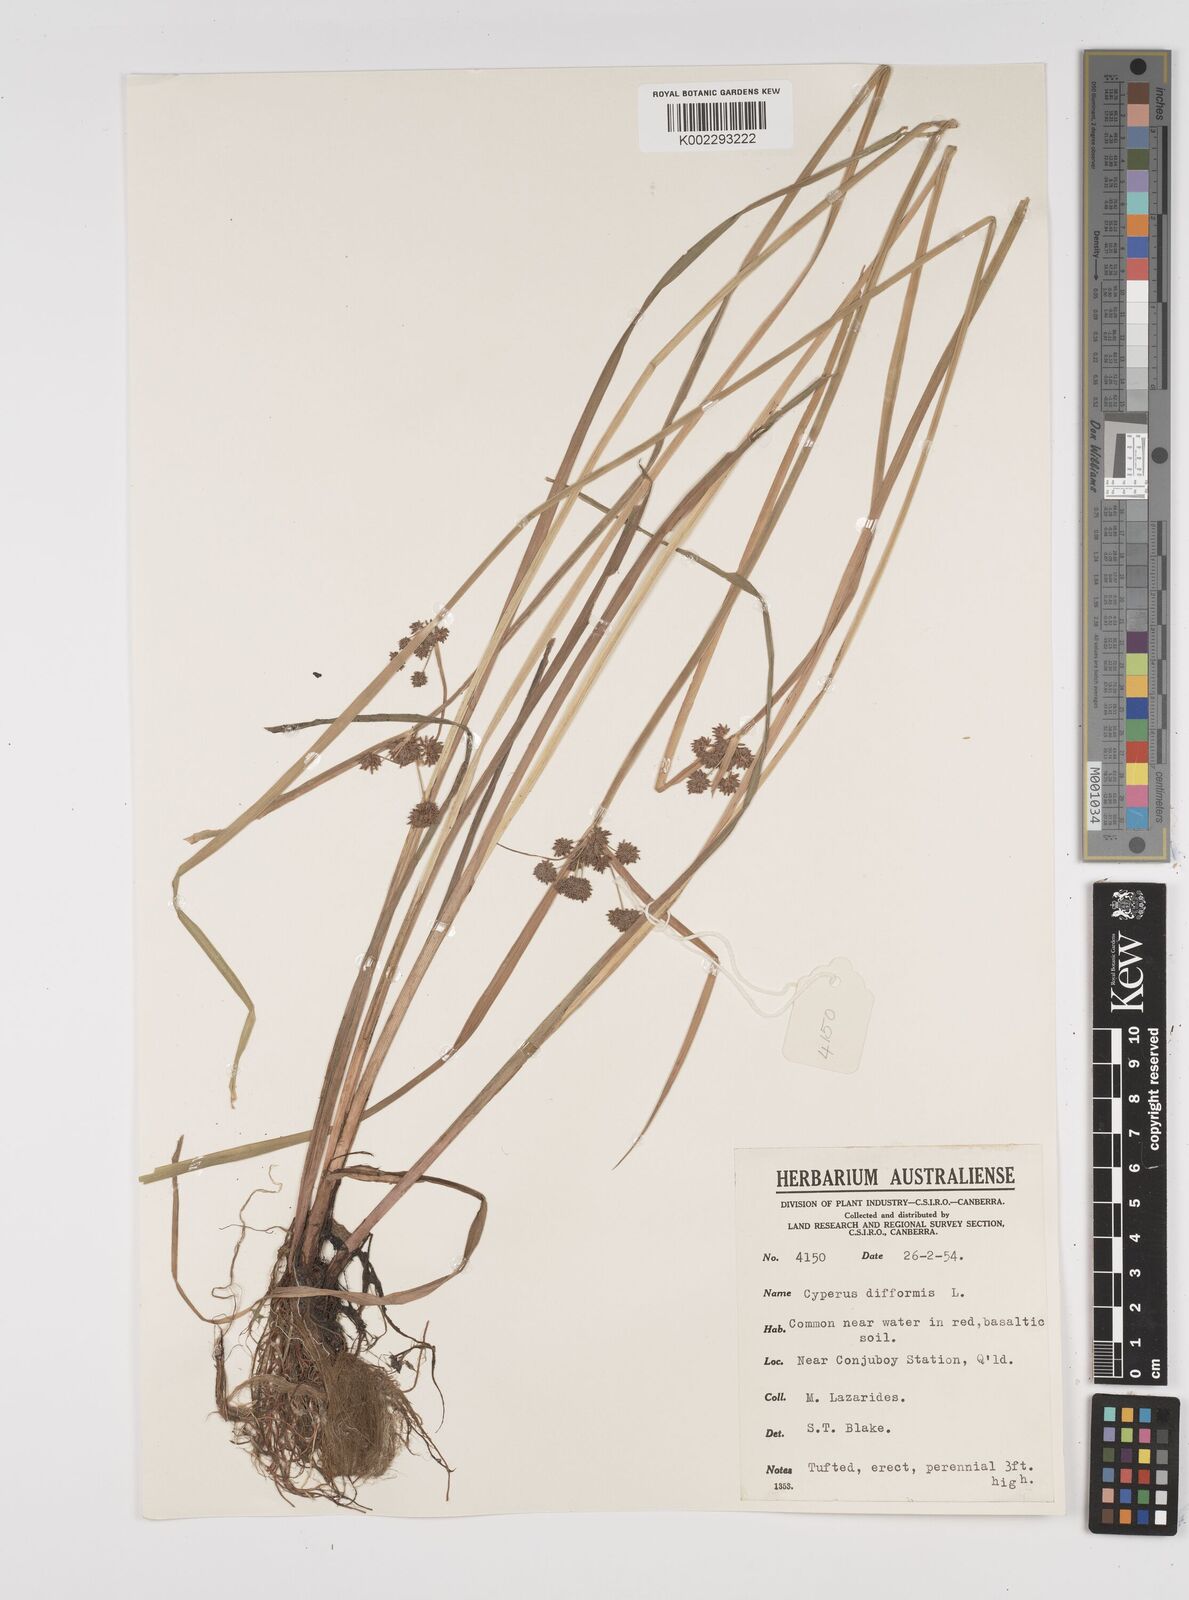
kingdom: Plantae
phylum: Tracheophyta
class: Liliopsida
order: Poales
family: Cyperaceae
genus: Cyperus
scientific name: Cyperus difformis
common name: Variable flatsedge
